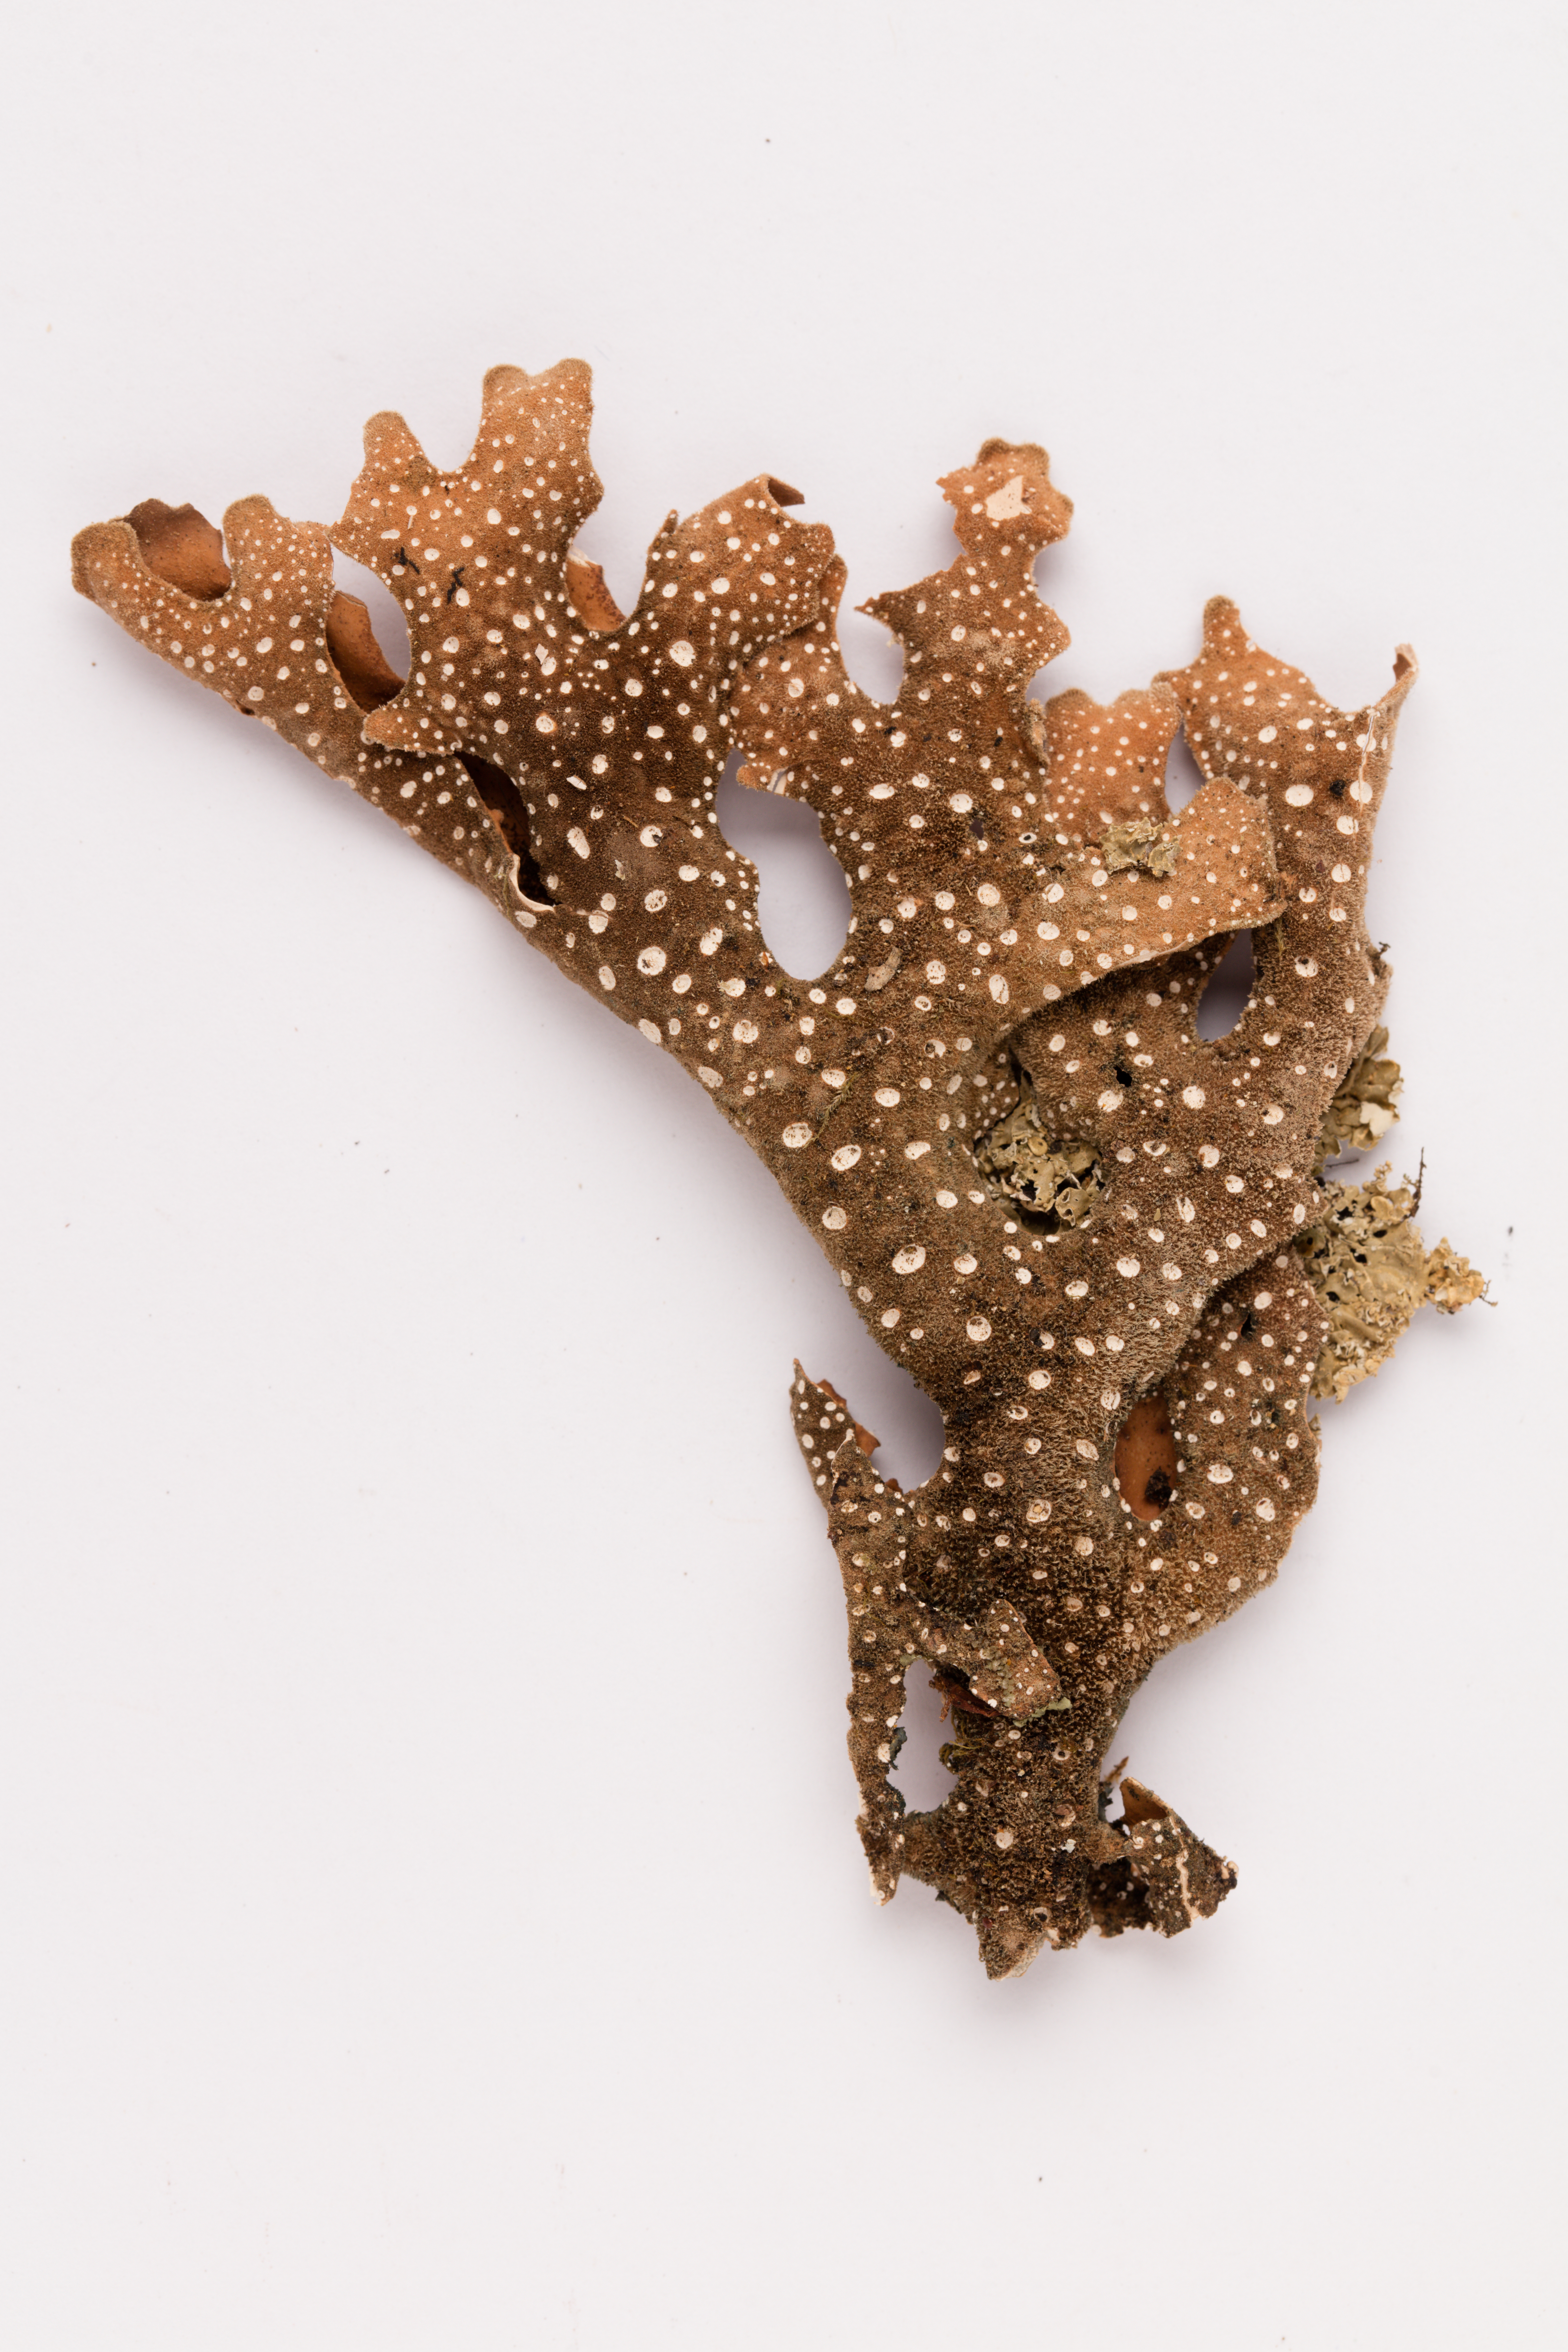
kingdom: Fungi
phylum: Ascomycota
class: Lecanoromycetes
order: Peltigerales
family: Lobariaceae
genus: Pseudocyphellaria
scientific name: Pseudocyphellaria coriacea
